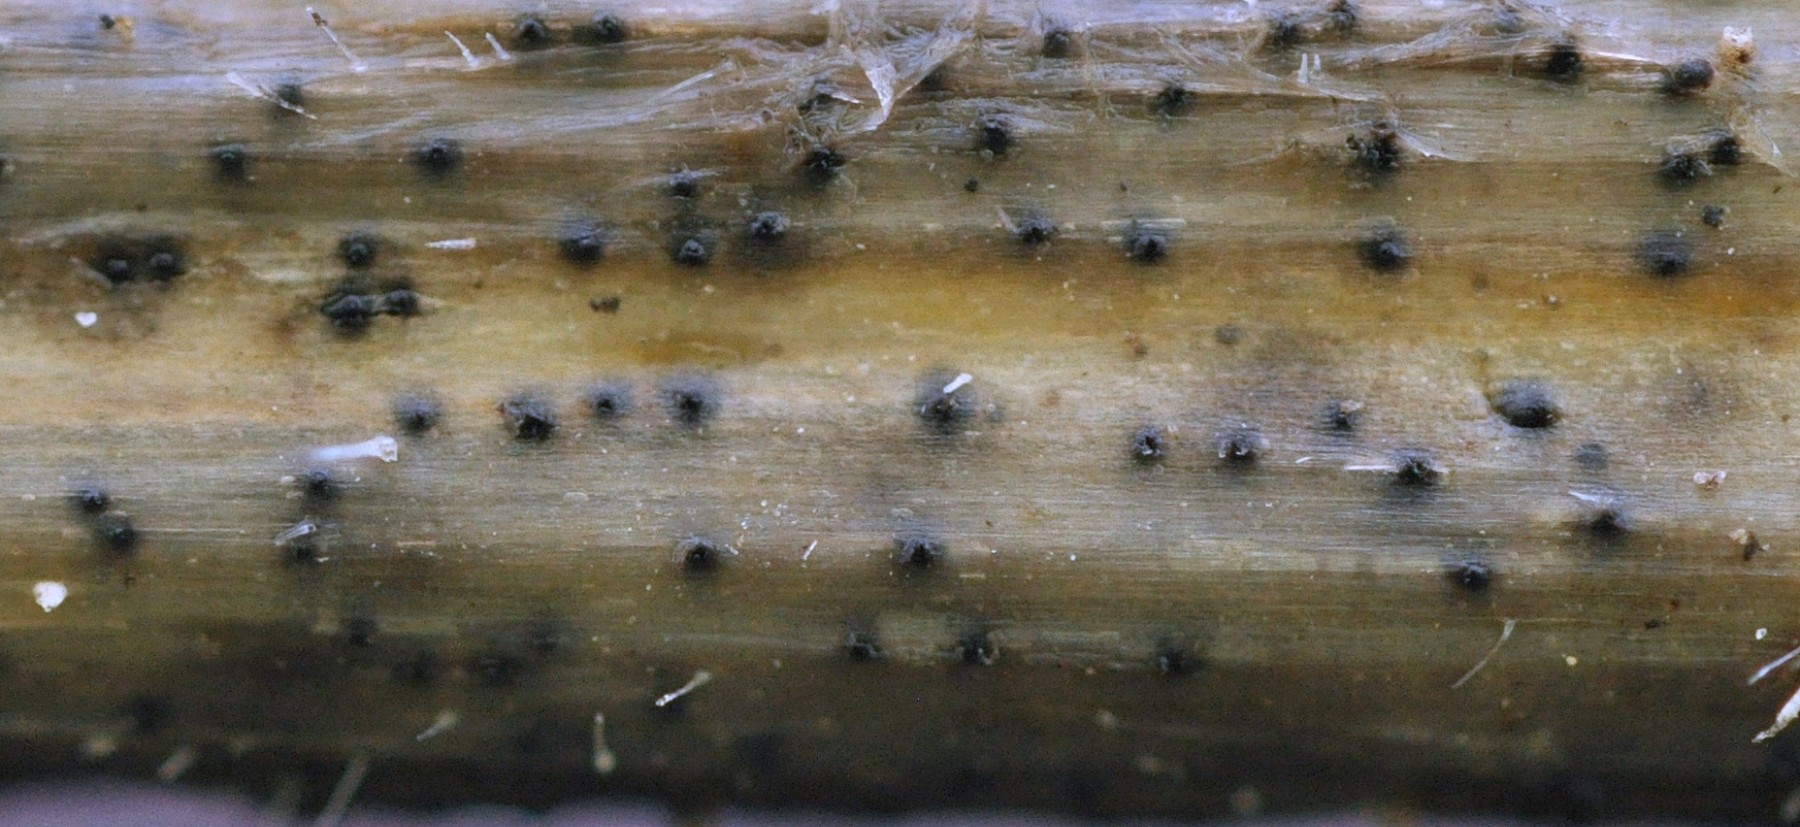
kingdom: Fungi
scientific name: Fungi
